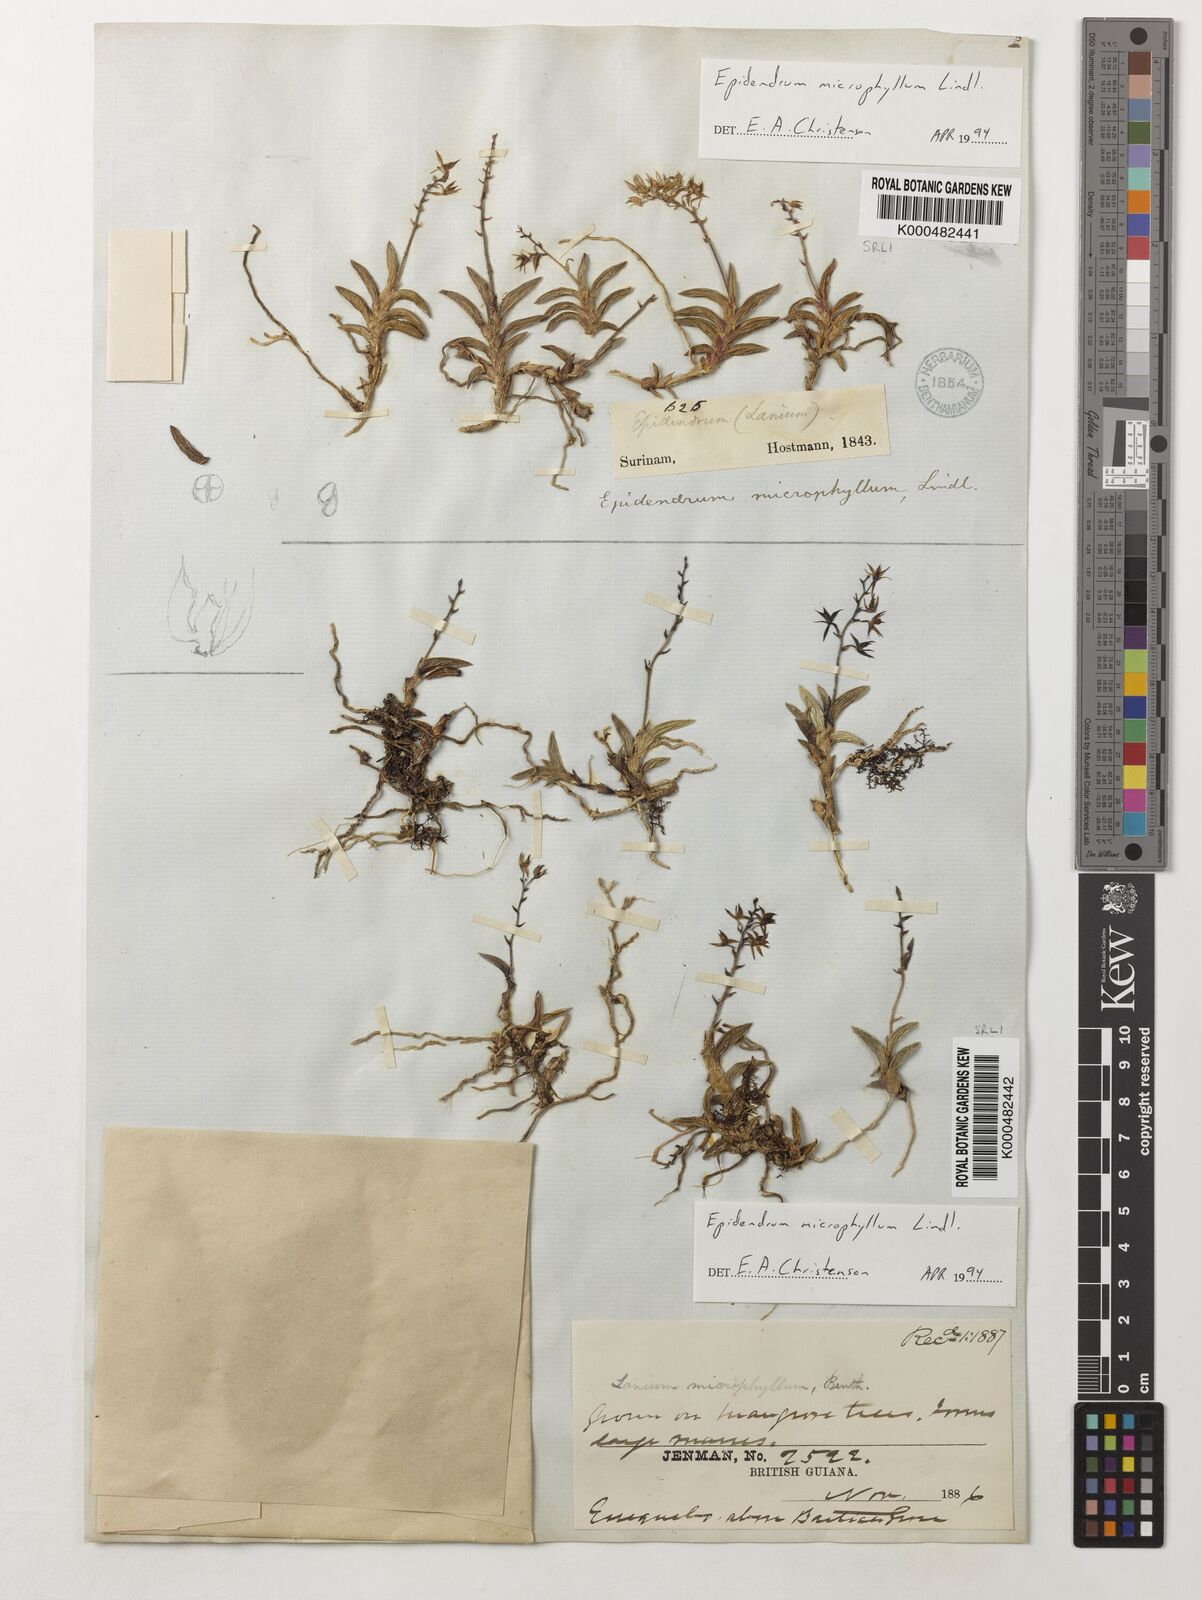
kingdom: Plantae
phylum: Tracheophyta
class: Liliopsida
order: Asparagales
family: Orchidaceae
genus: Epidendrum
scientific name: Epidendrum microphyllum
